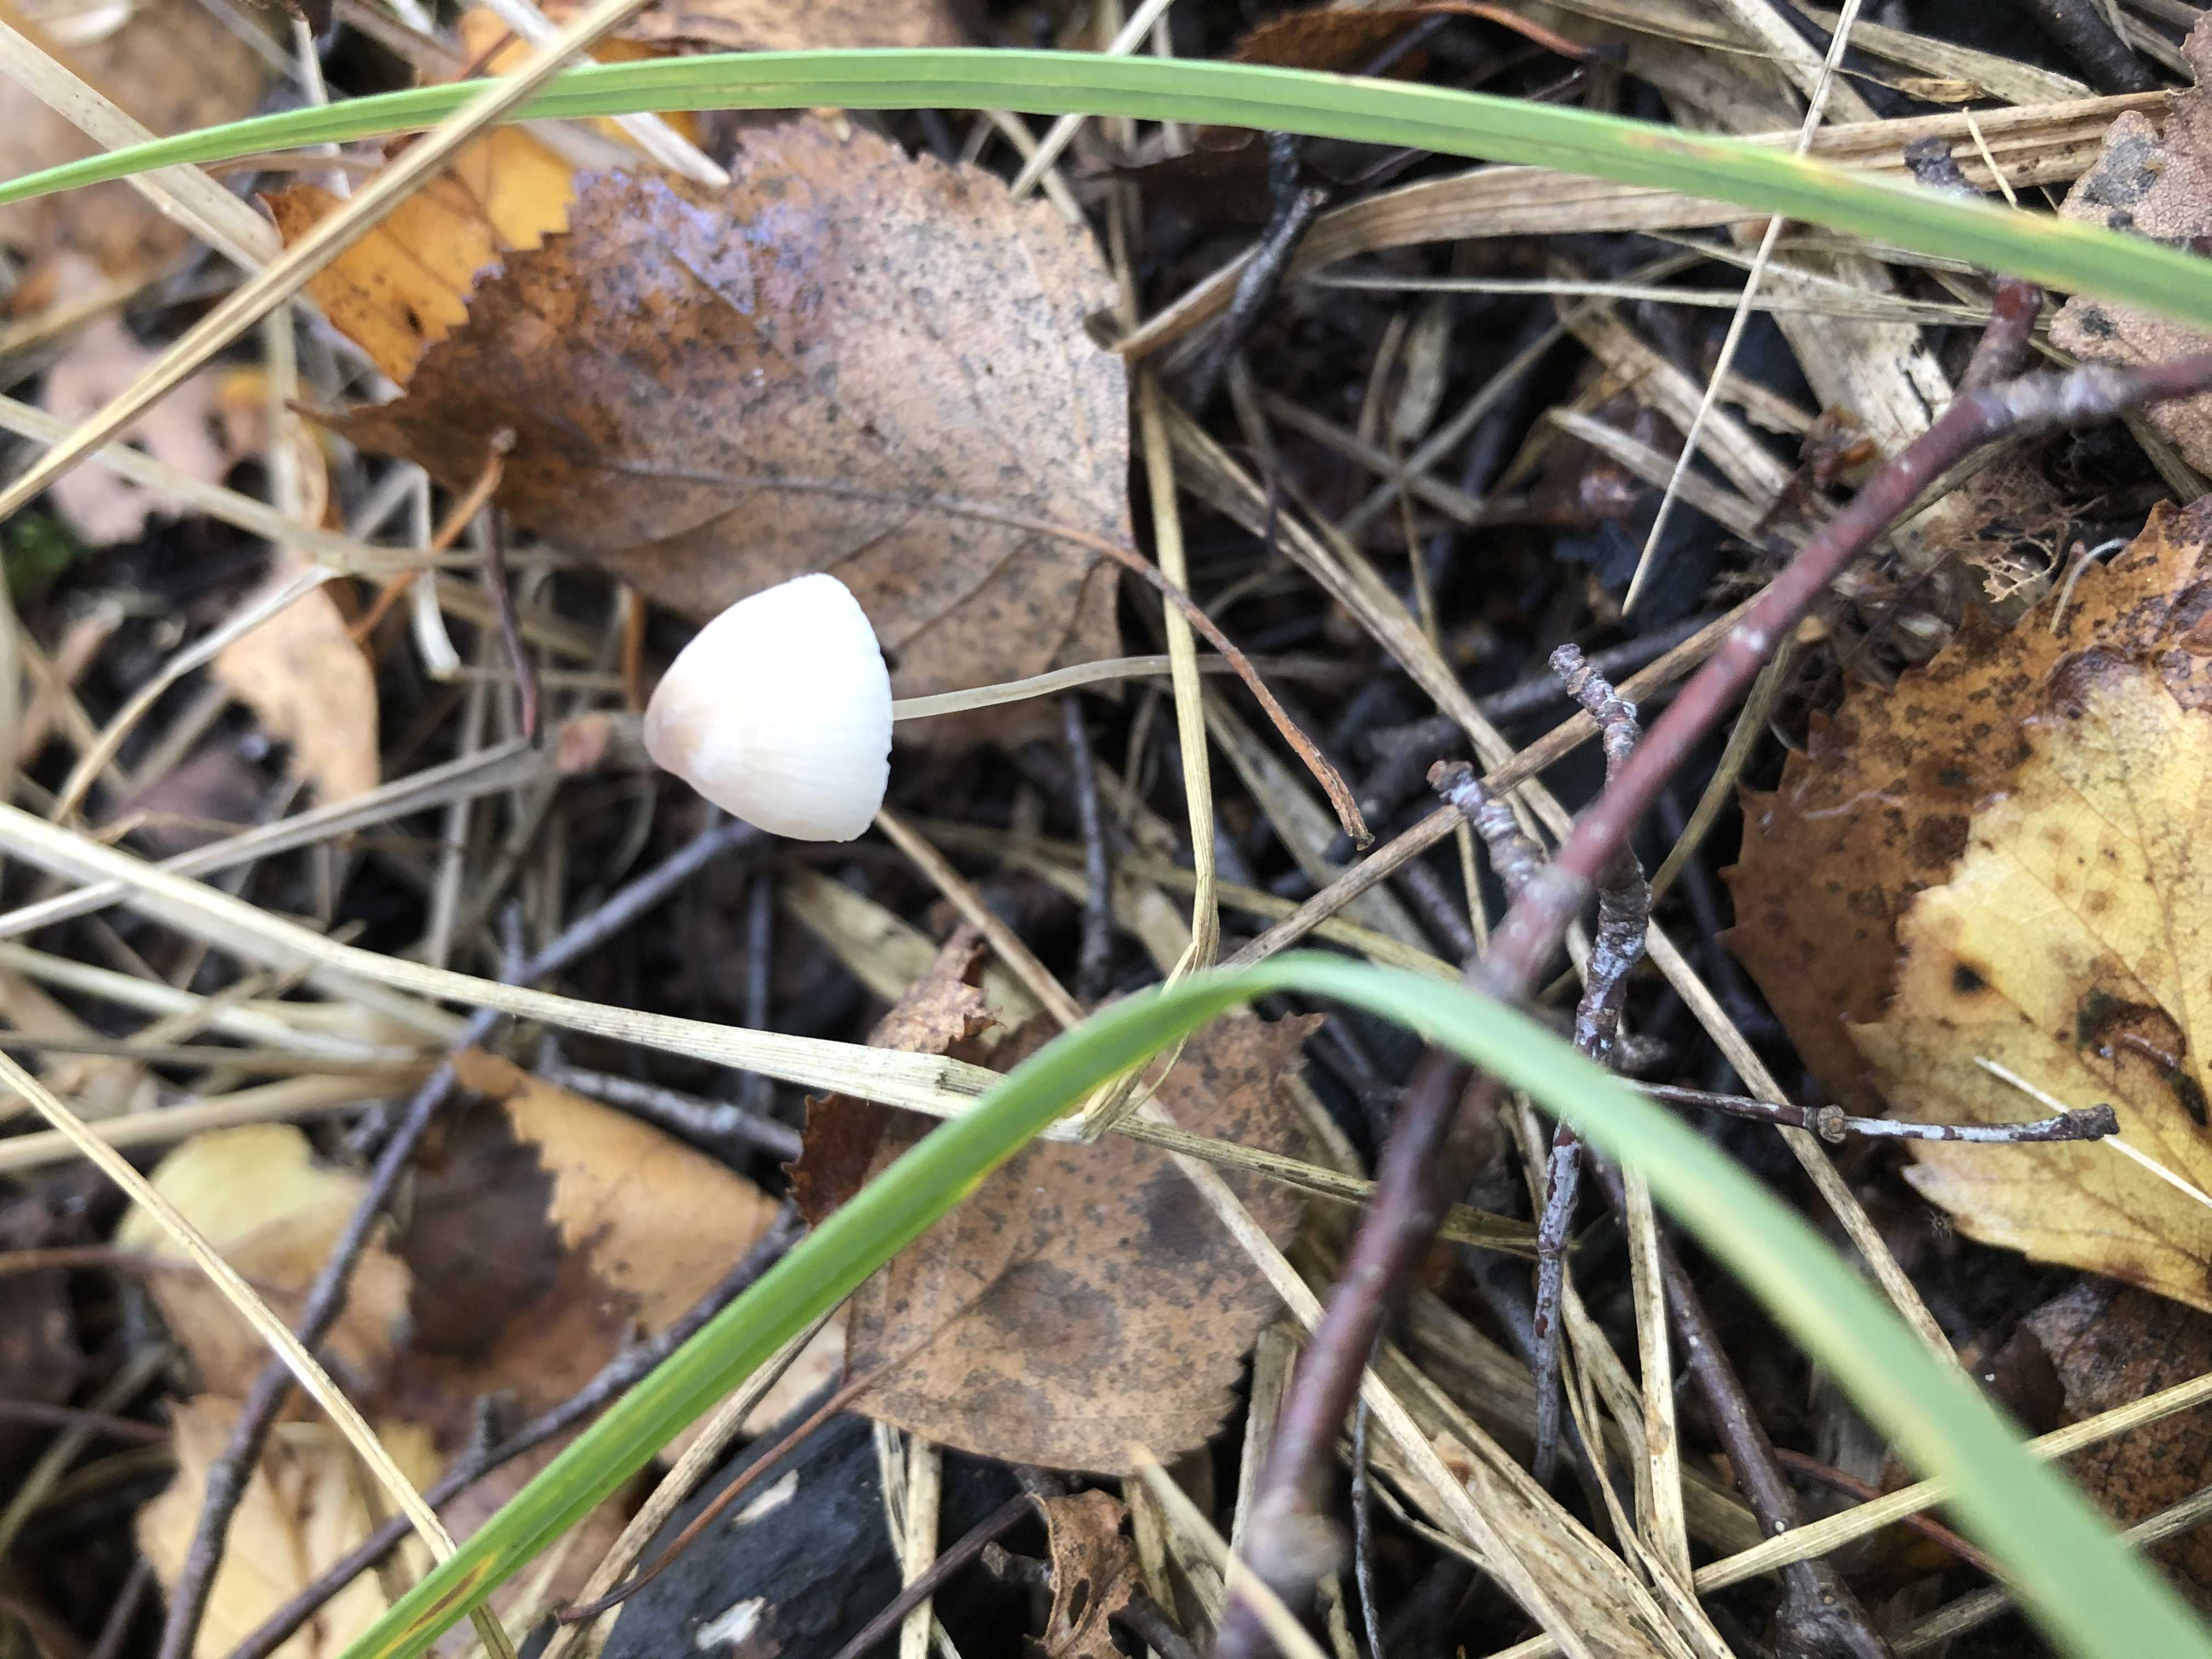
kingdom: Fungi
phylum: Basidiomycota
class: Agaricomycetes
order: Agaricales
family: Mycenaceae
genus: Mycena
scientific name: Mycena
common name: huesvamp
